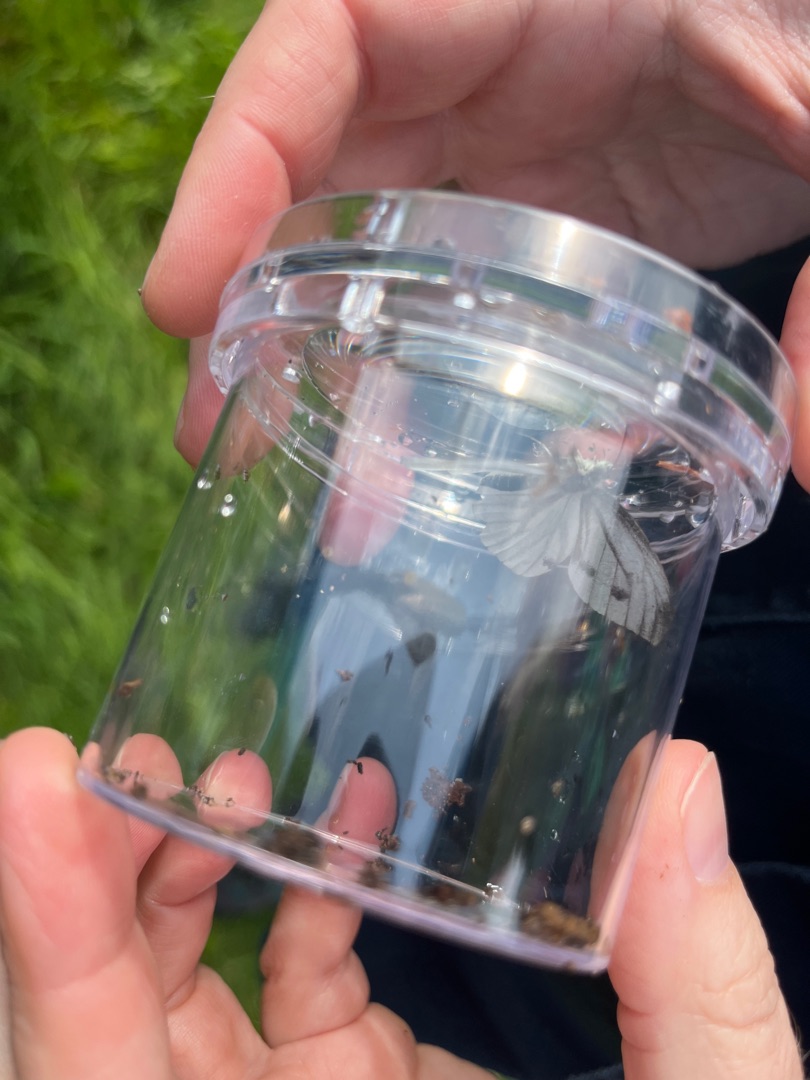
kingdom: Animalia
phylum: Arthropoda
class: Insecta
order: Lepidoptera
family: Pieridae
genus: Pieris
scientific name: Pieris napi
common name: Grønåret kålsommerfugl
